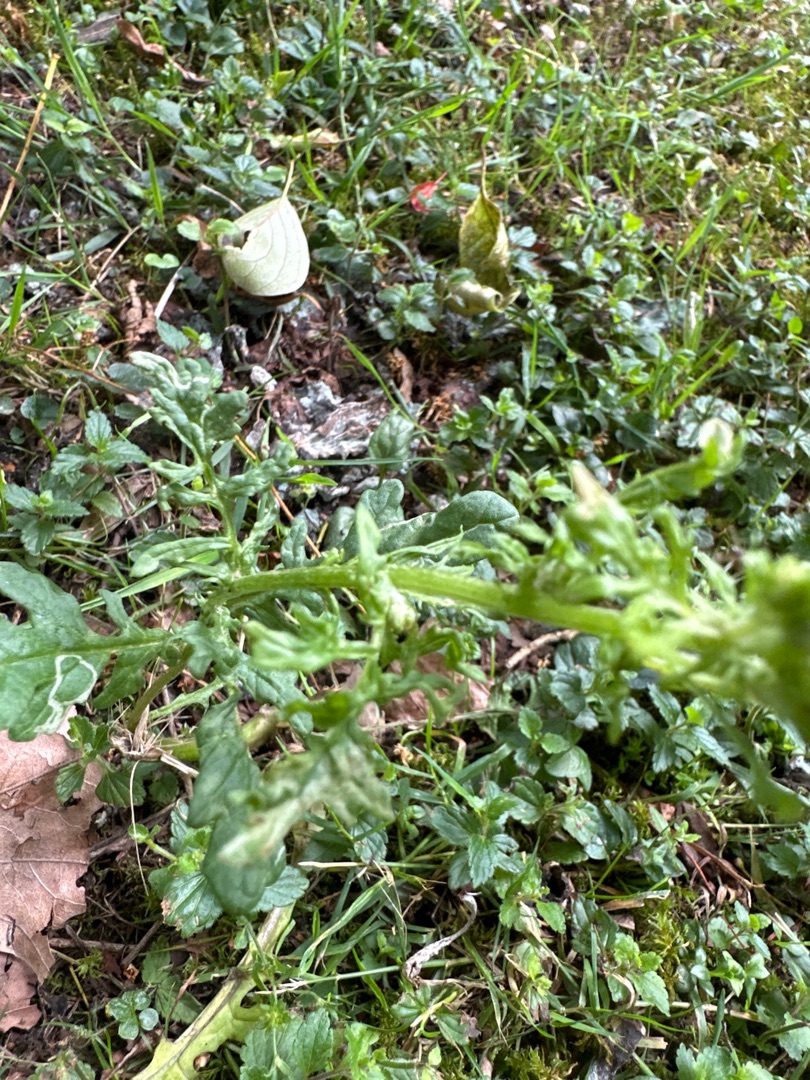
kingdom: Plantae
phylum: Tracheophyta
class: Magnoliopsida
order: Asterales
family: Asteraceae
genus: Jacobaea
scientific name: Jacobaea vulgaris
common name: Eng-brandbæger
